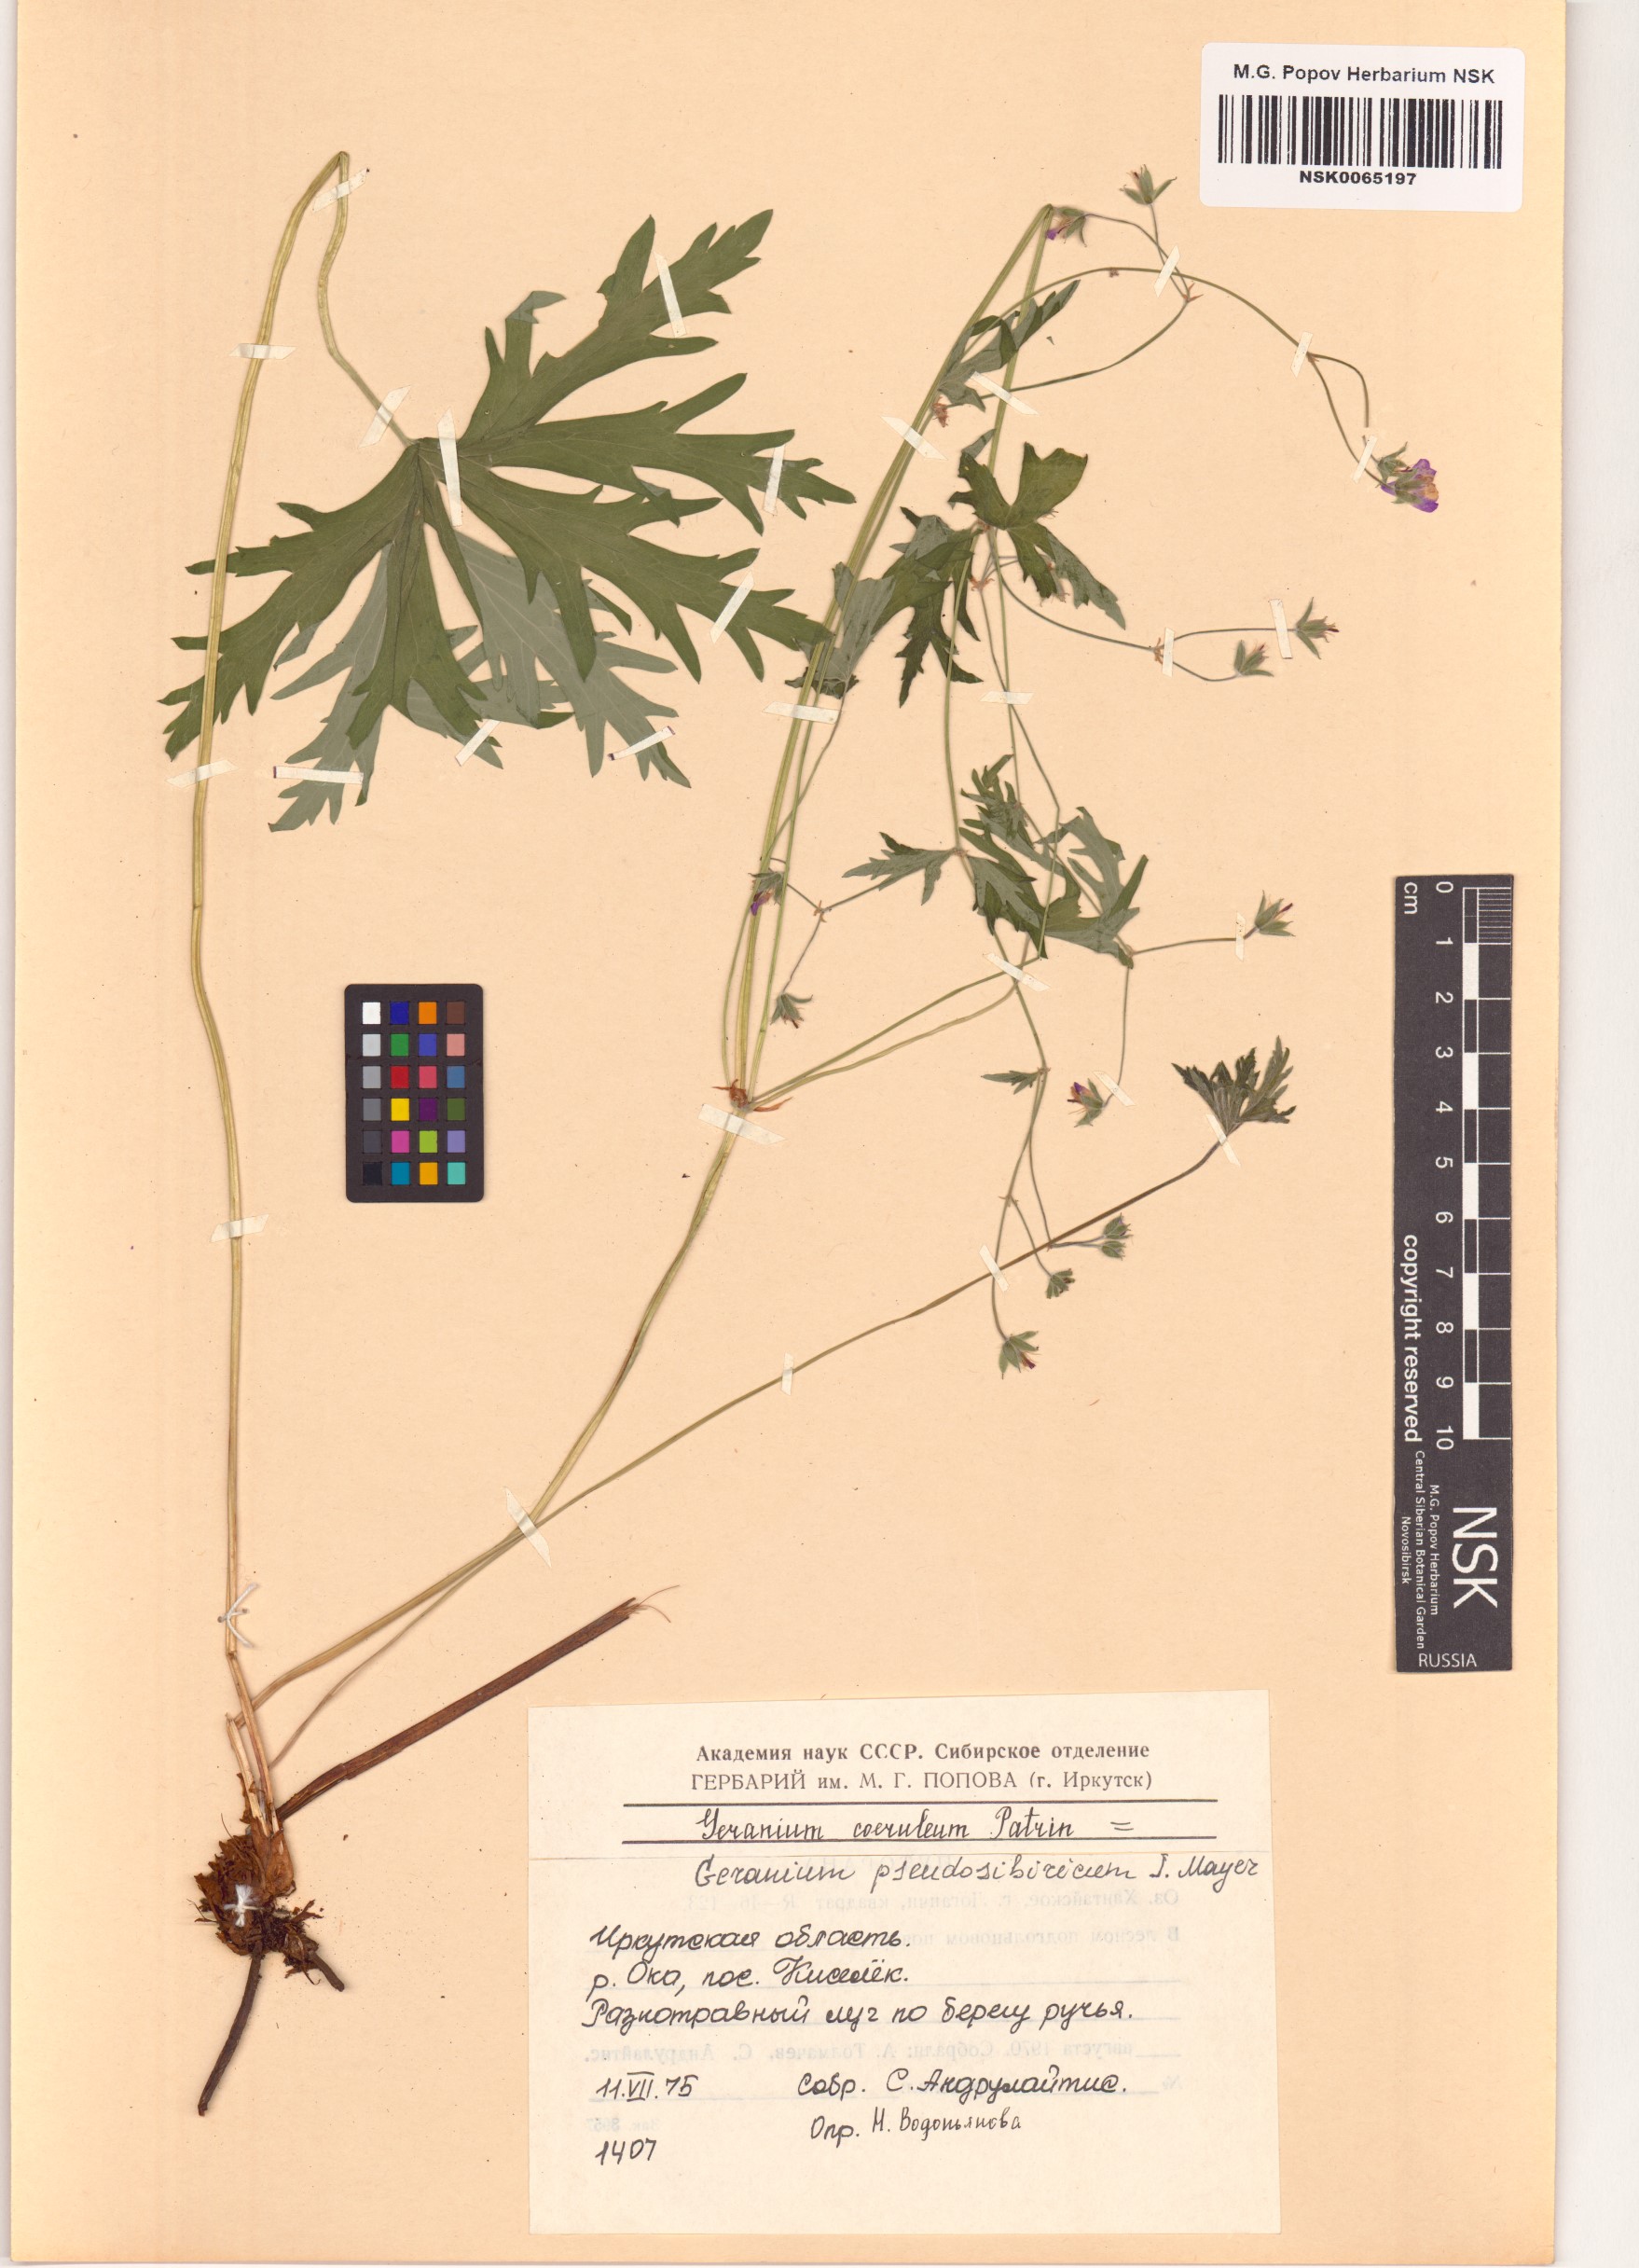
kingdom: Plantae
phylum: Tracheophyta
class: Magnoliopsida
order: Geraniales
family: Geraniaceae
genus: Geranium
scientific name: Geranium pseudosibiricum
